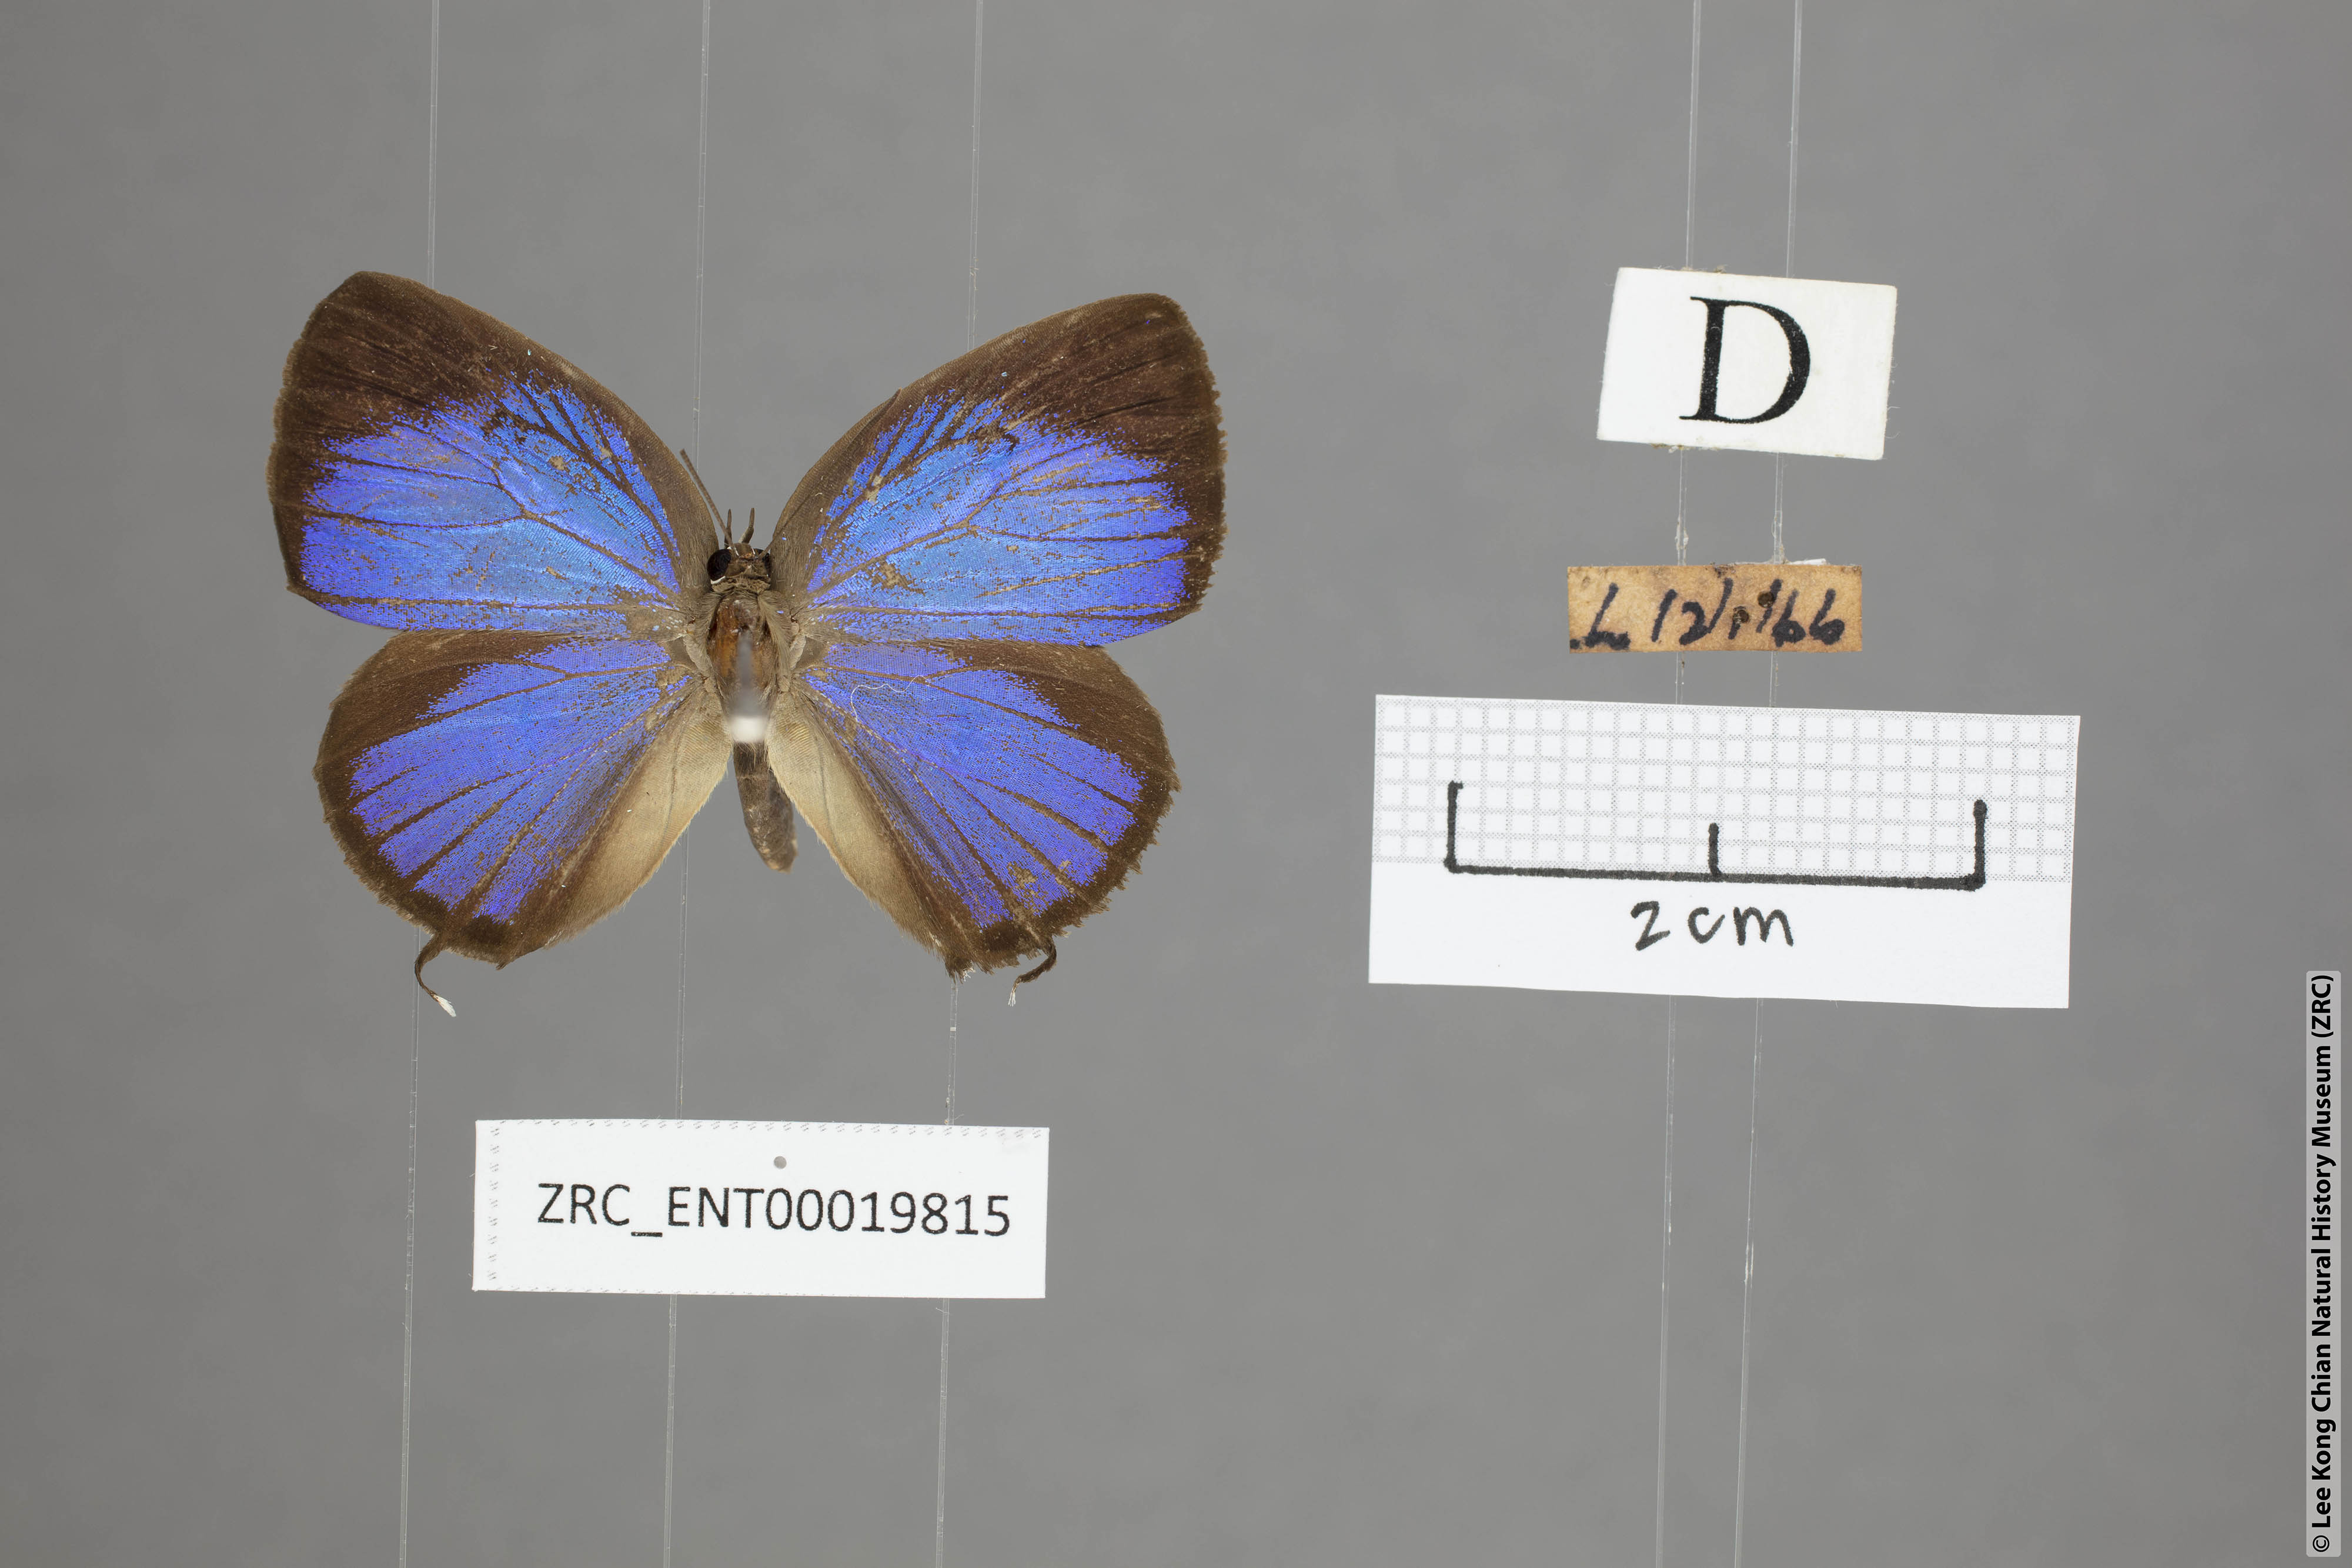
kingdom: Animalia
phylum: Arthropoda
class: Insecta
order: Lepidoptera
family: Lycaenidae
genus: Arhopala
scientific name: Arhopala pseudomuta
